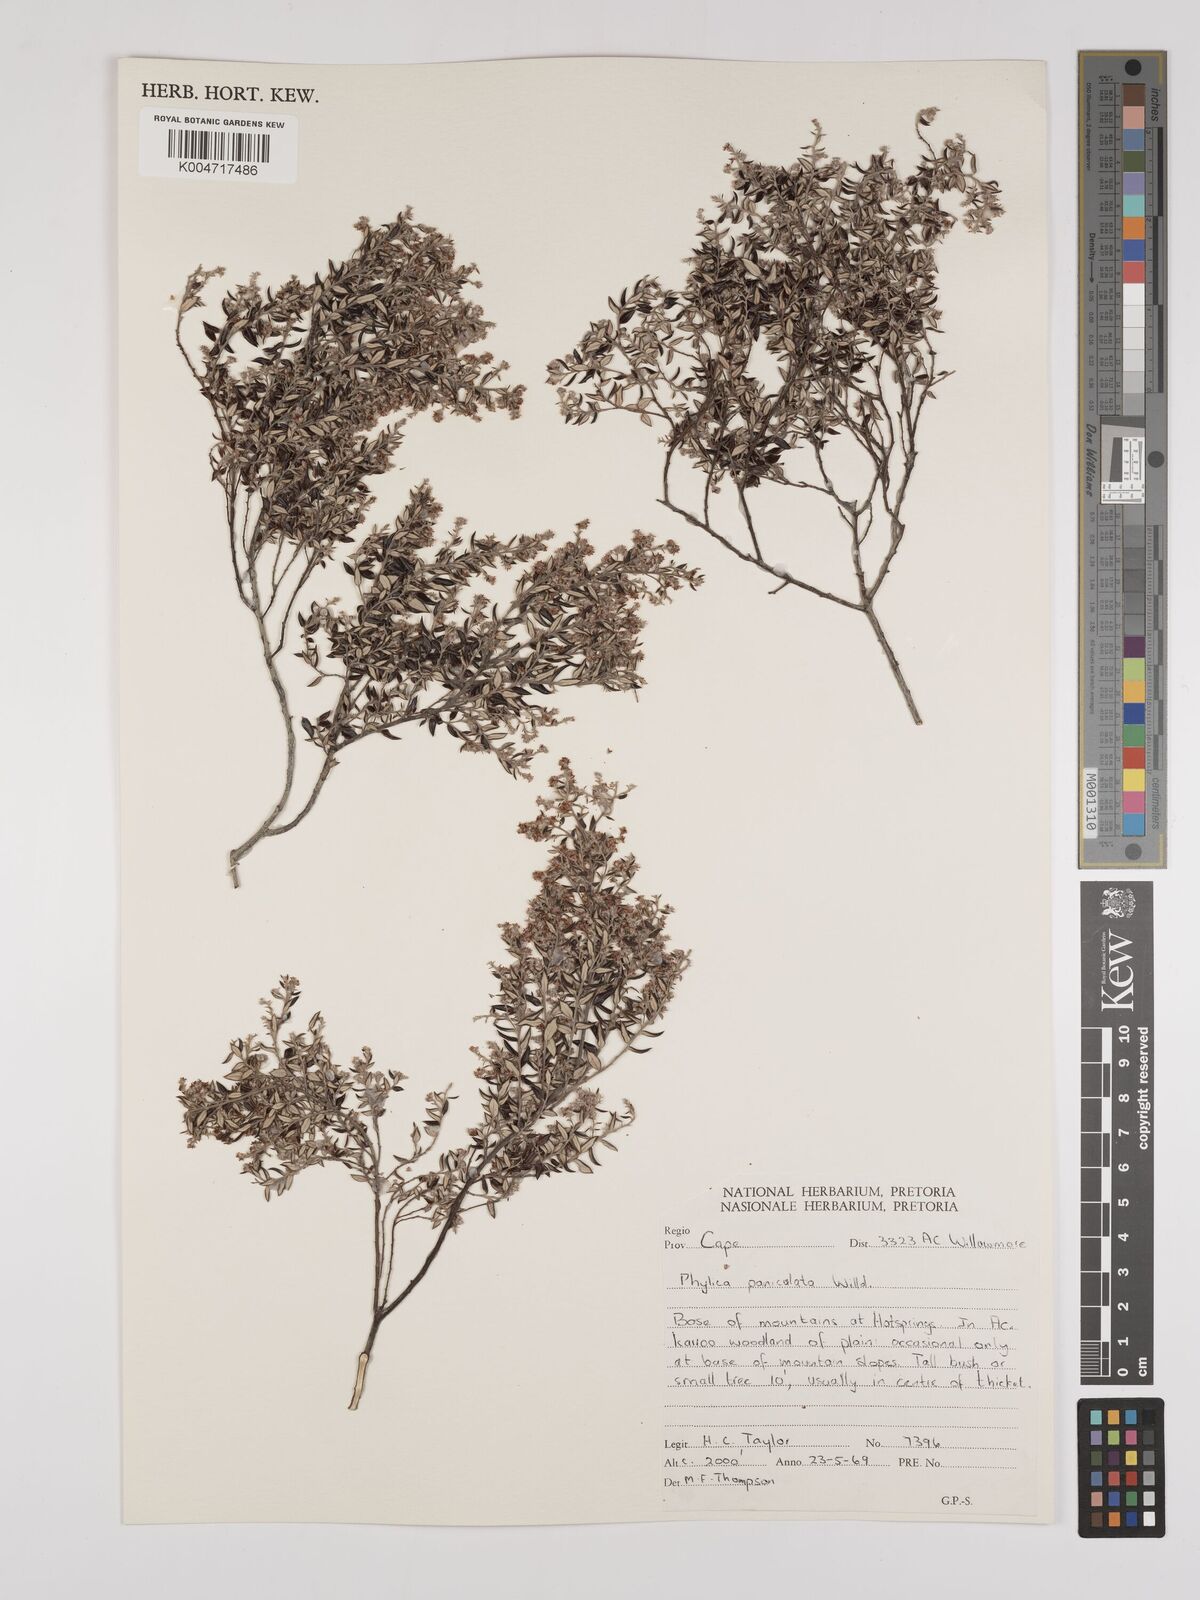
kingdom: Plantae
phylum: Tracheophyta
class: Magnoliopsida
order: Rosales
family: Rhamnaceae
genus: Phylica
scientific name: Phylica paniculata
